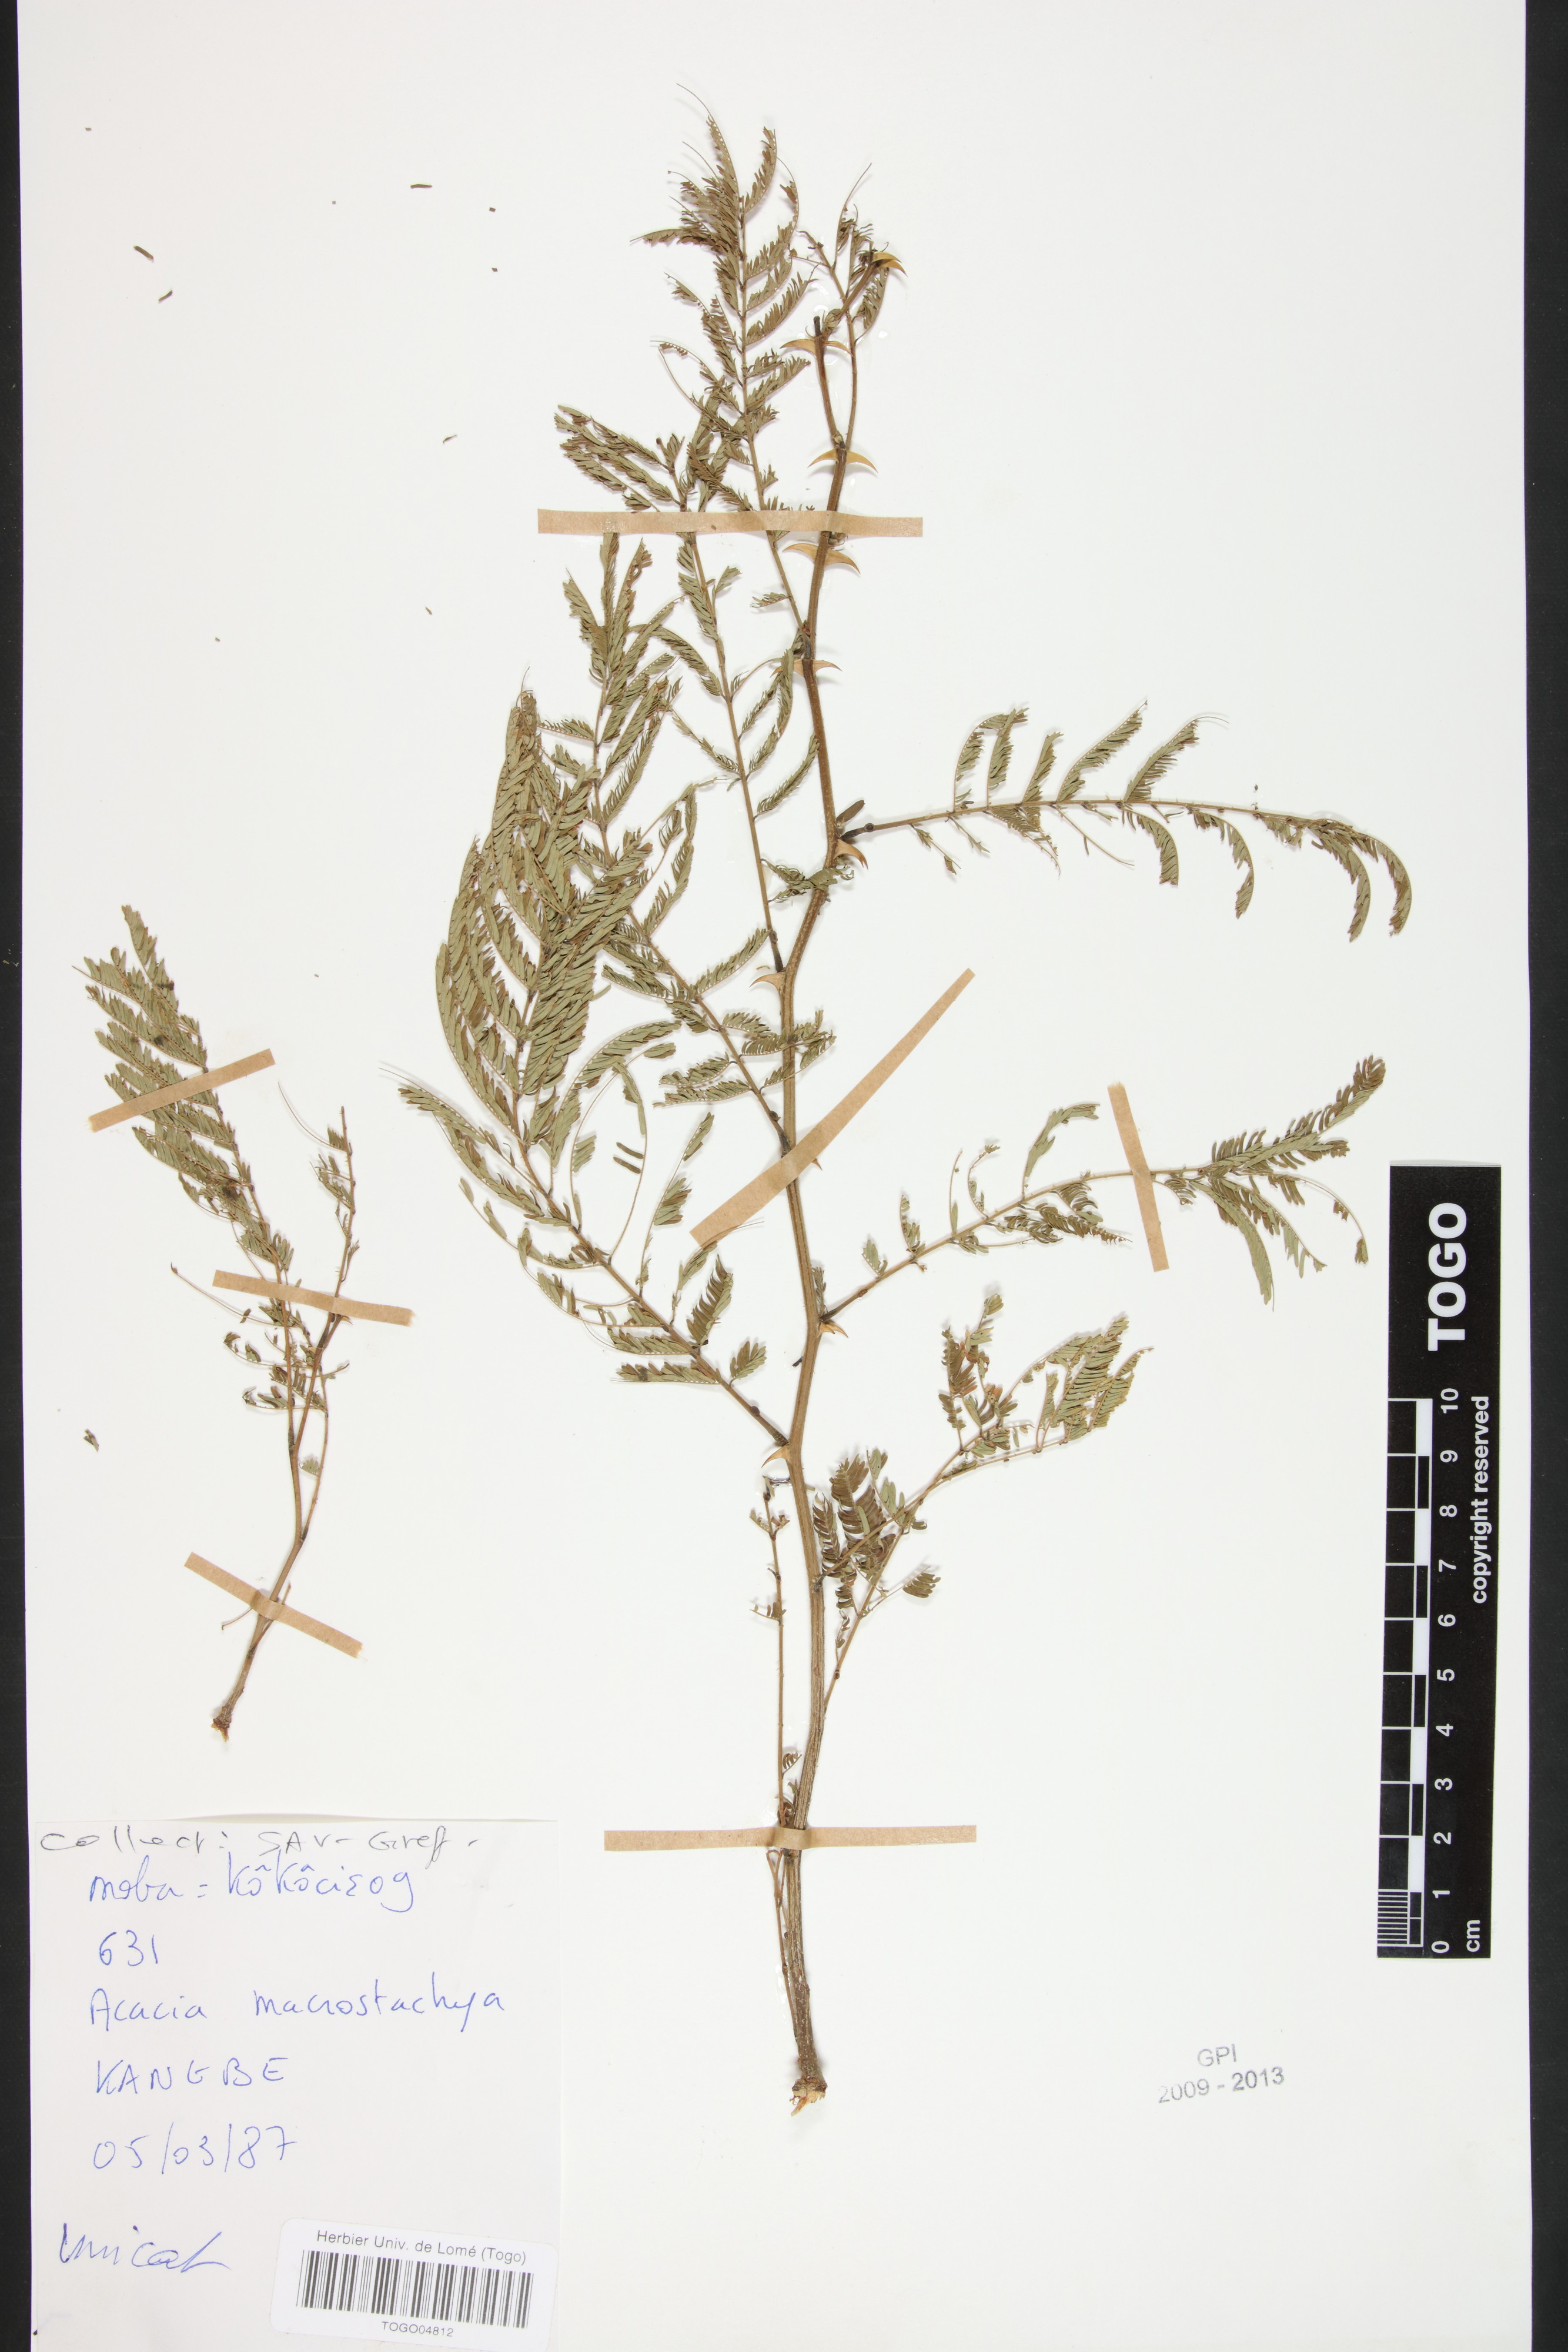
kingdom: Plantae
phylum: Tracheophyta
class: Magnoliopsida
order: Fabales
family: Fabaceae
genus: Senegalia
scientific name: Senegalia macrostachya
